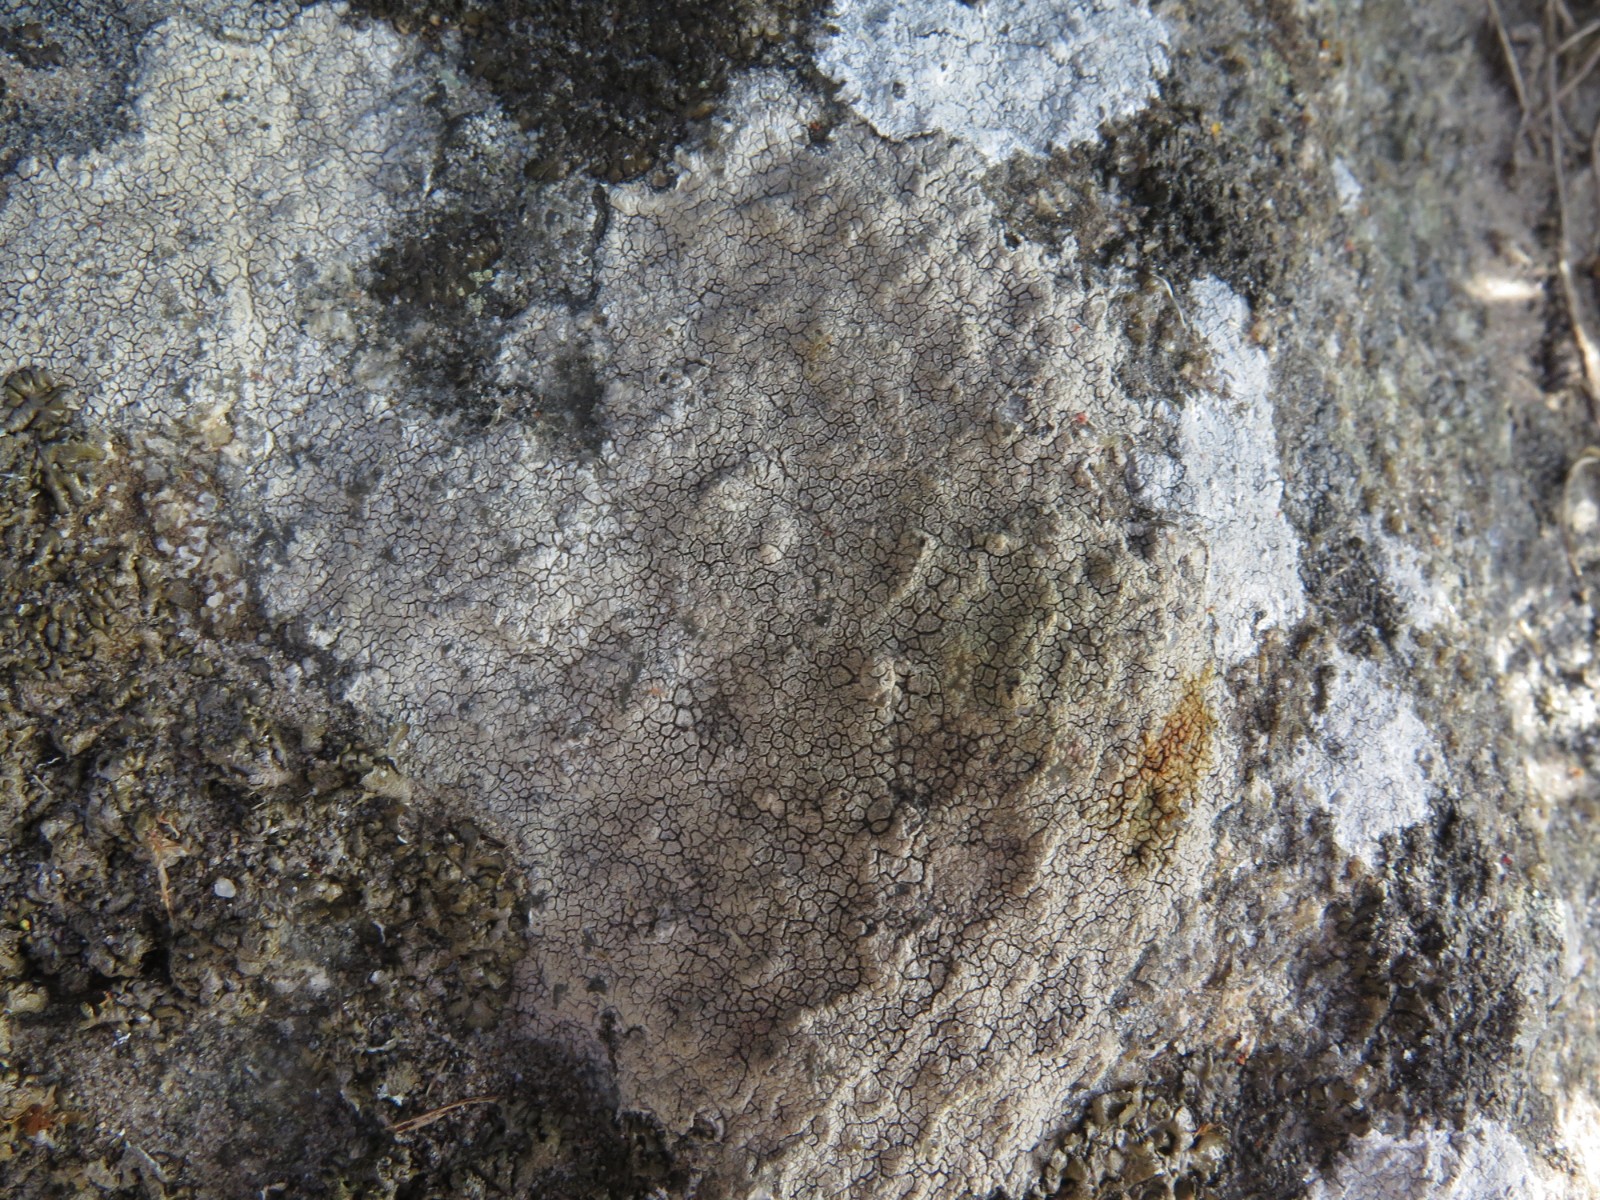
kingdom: Fungi
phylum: Ascomycota
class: Lecanoromycetes
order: Lecideales
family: Lecideaceae
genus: Lecidea
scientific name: Lecidea fuscoatra
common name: rudret skivelav
